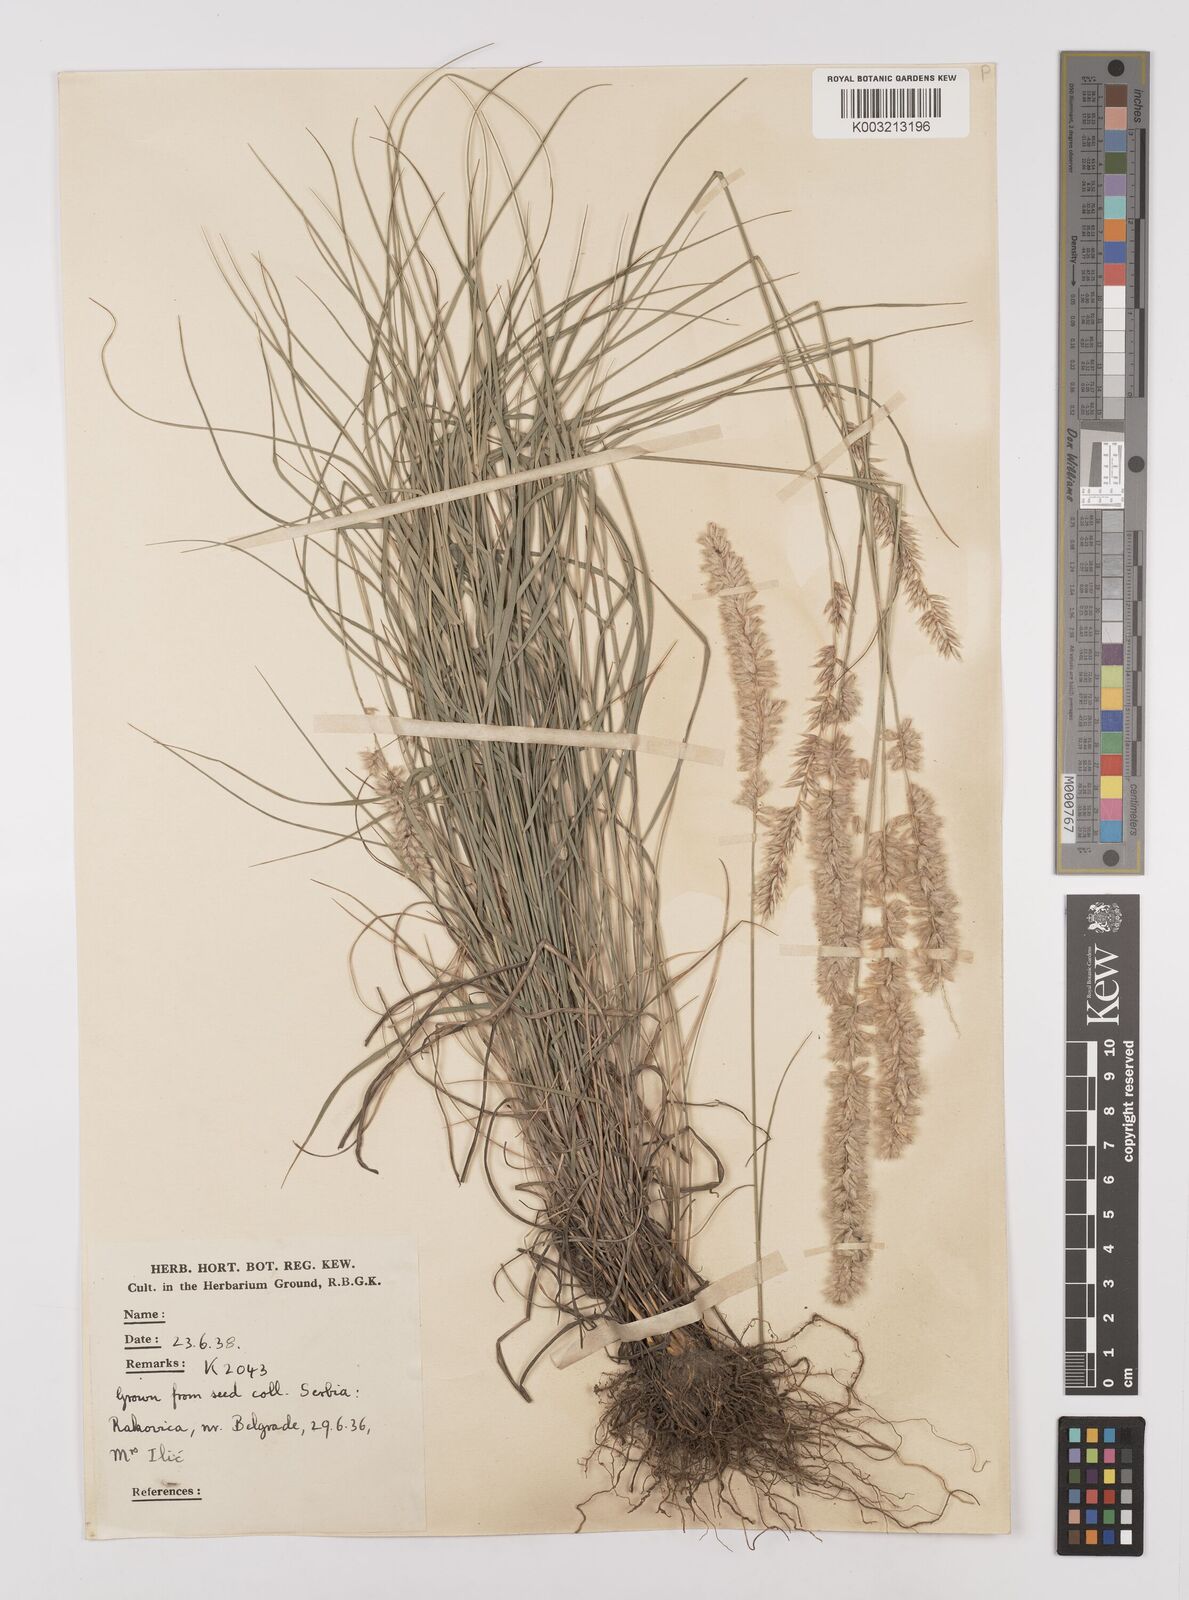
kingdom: Plantae
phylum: Tracheophyta
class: Liliopsida
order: Poales
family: Poaceae
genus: Melica
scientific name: Melica ciliata
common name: Hairy melicgrass
